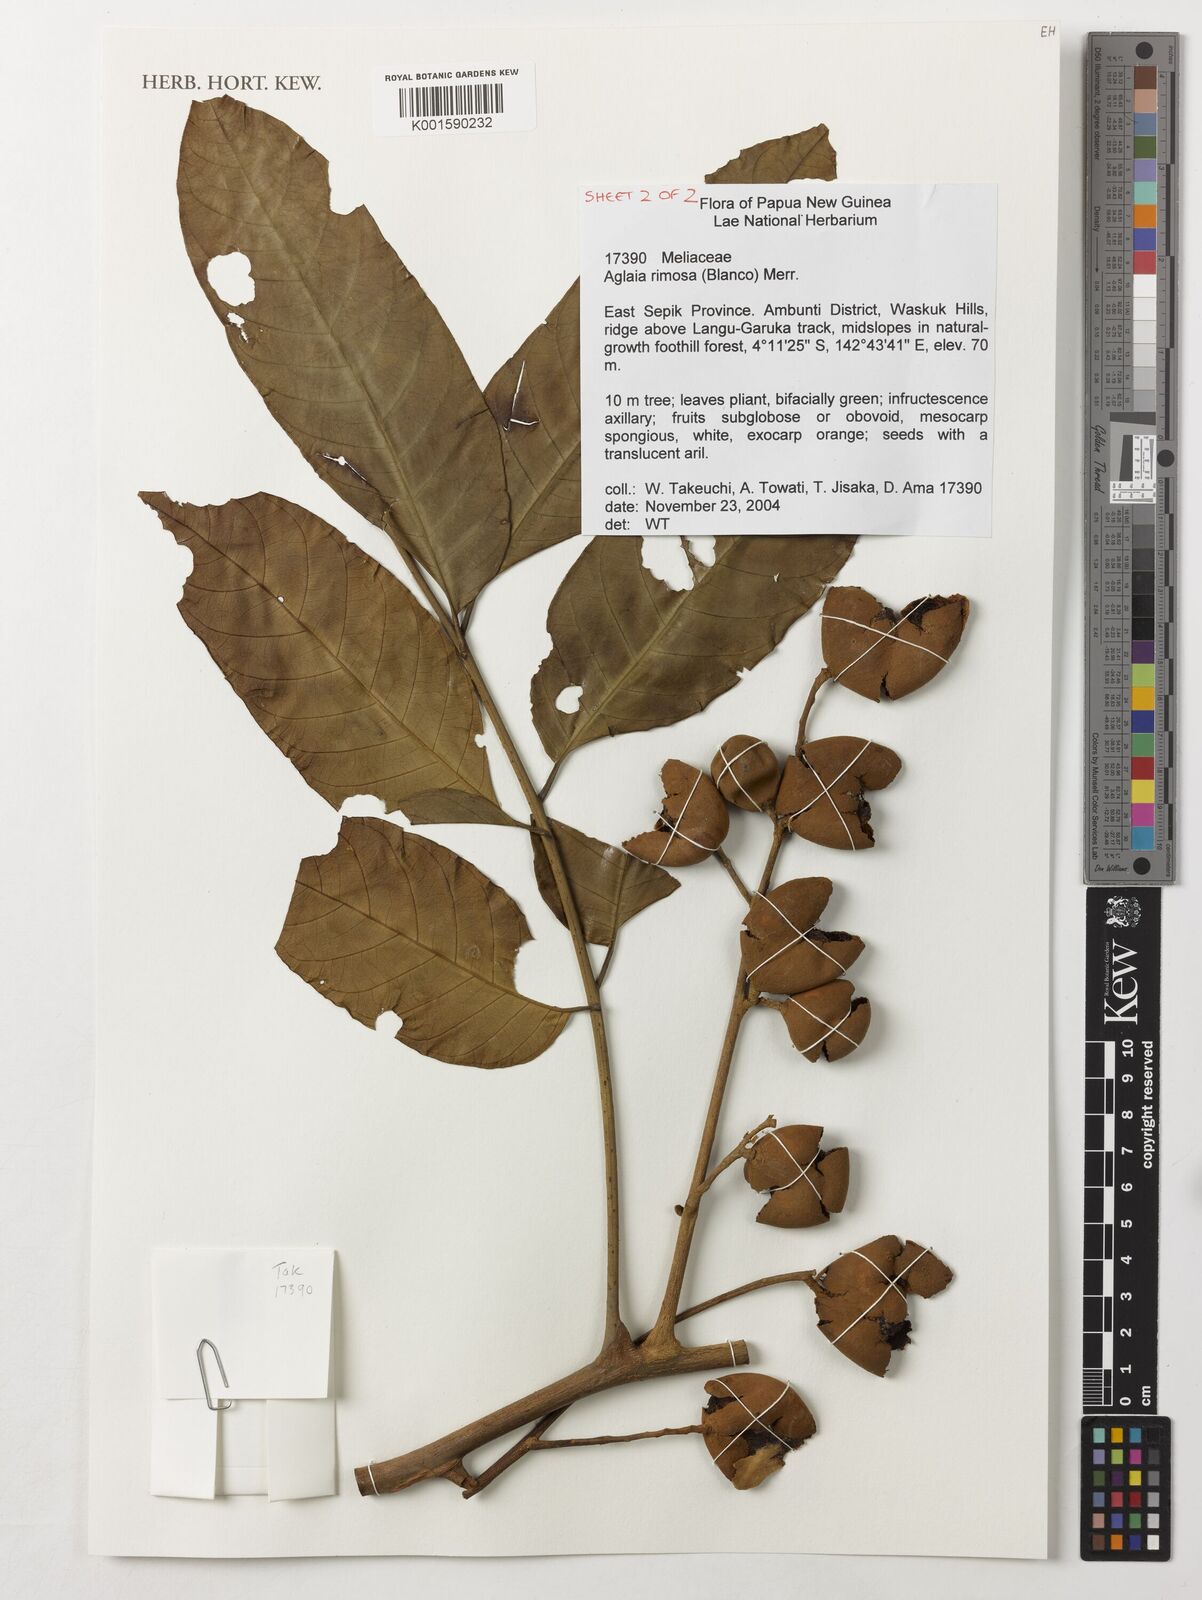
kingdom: Plantae
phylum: Tracheophyta
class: Magnoliopsida
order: Sapindales
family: Meliaceae
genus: Aglaia
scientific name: Aglaia rimosa
